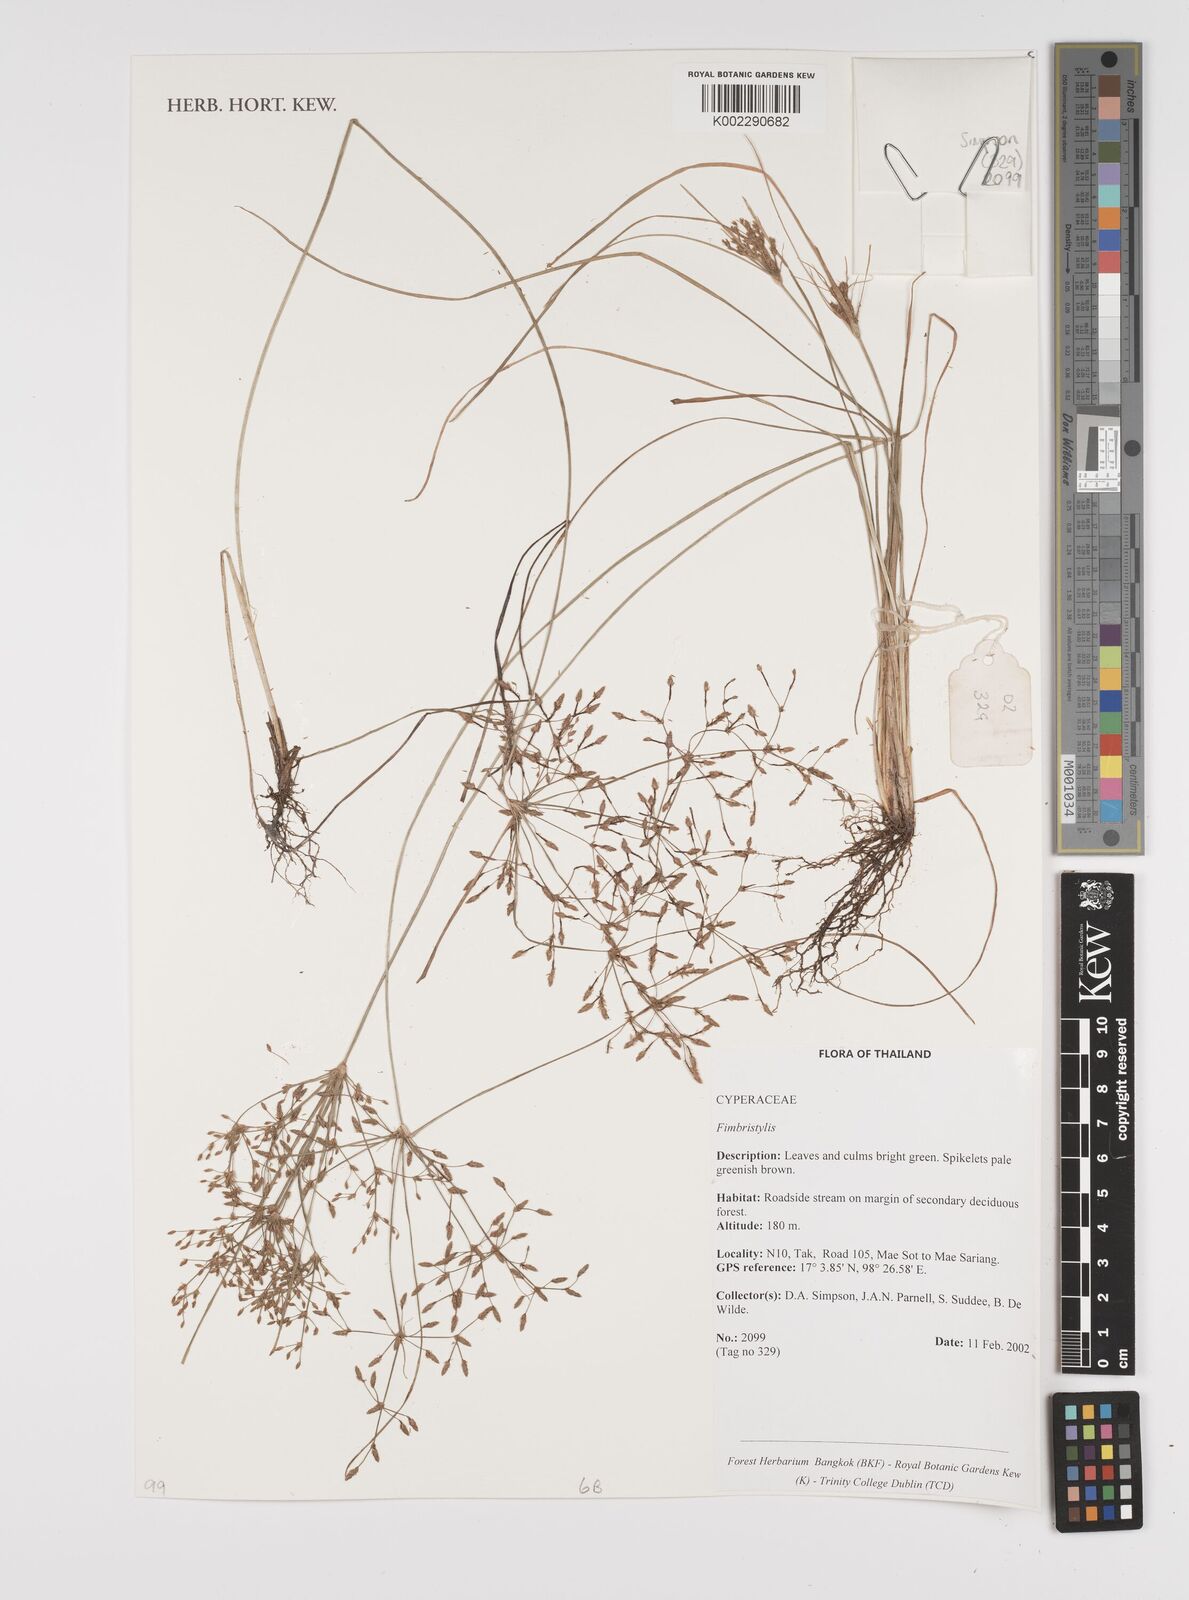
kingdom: Plantae
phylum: Tracheophyta
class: Liliopsida
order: Poales
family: Cyperaceae
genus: Fimbristylis
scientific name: Fimbristylis
